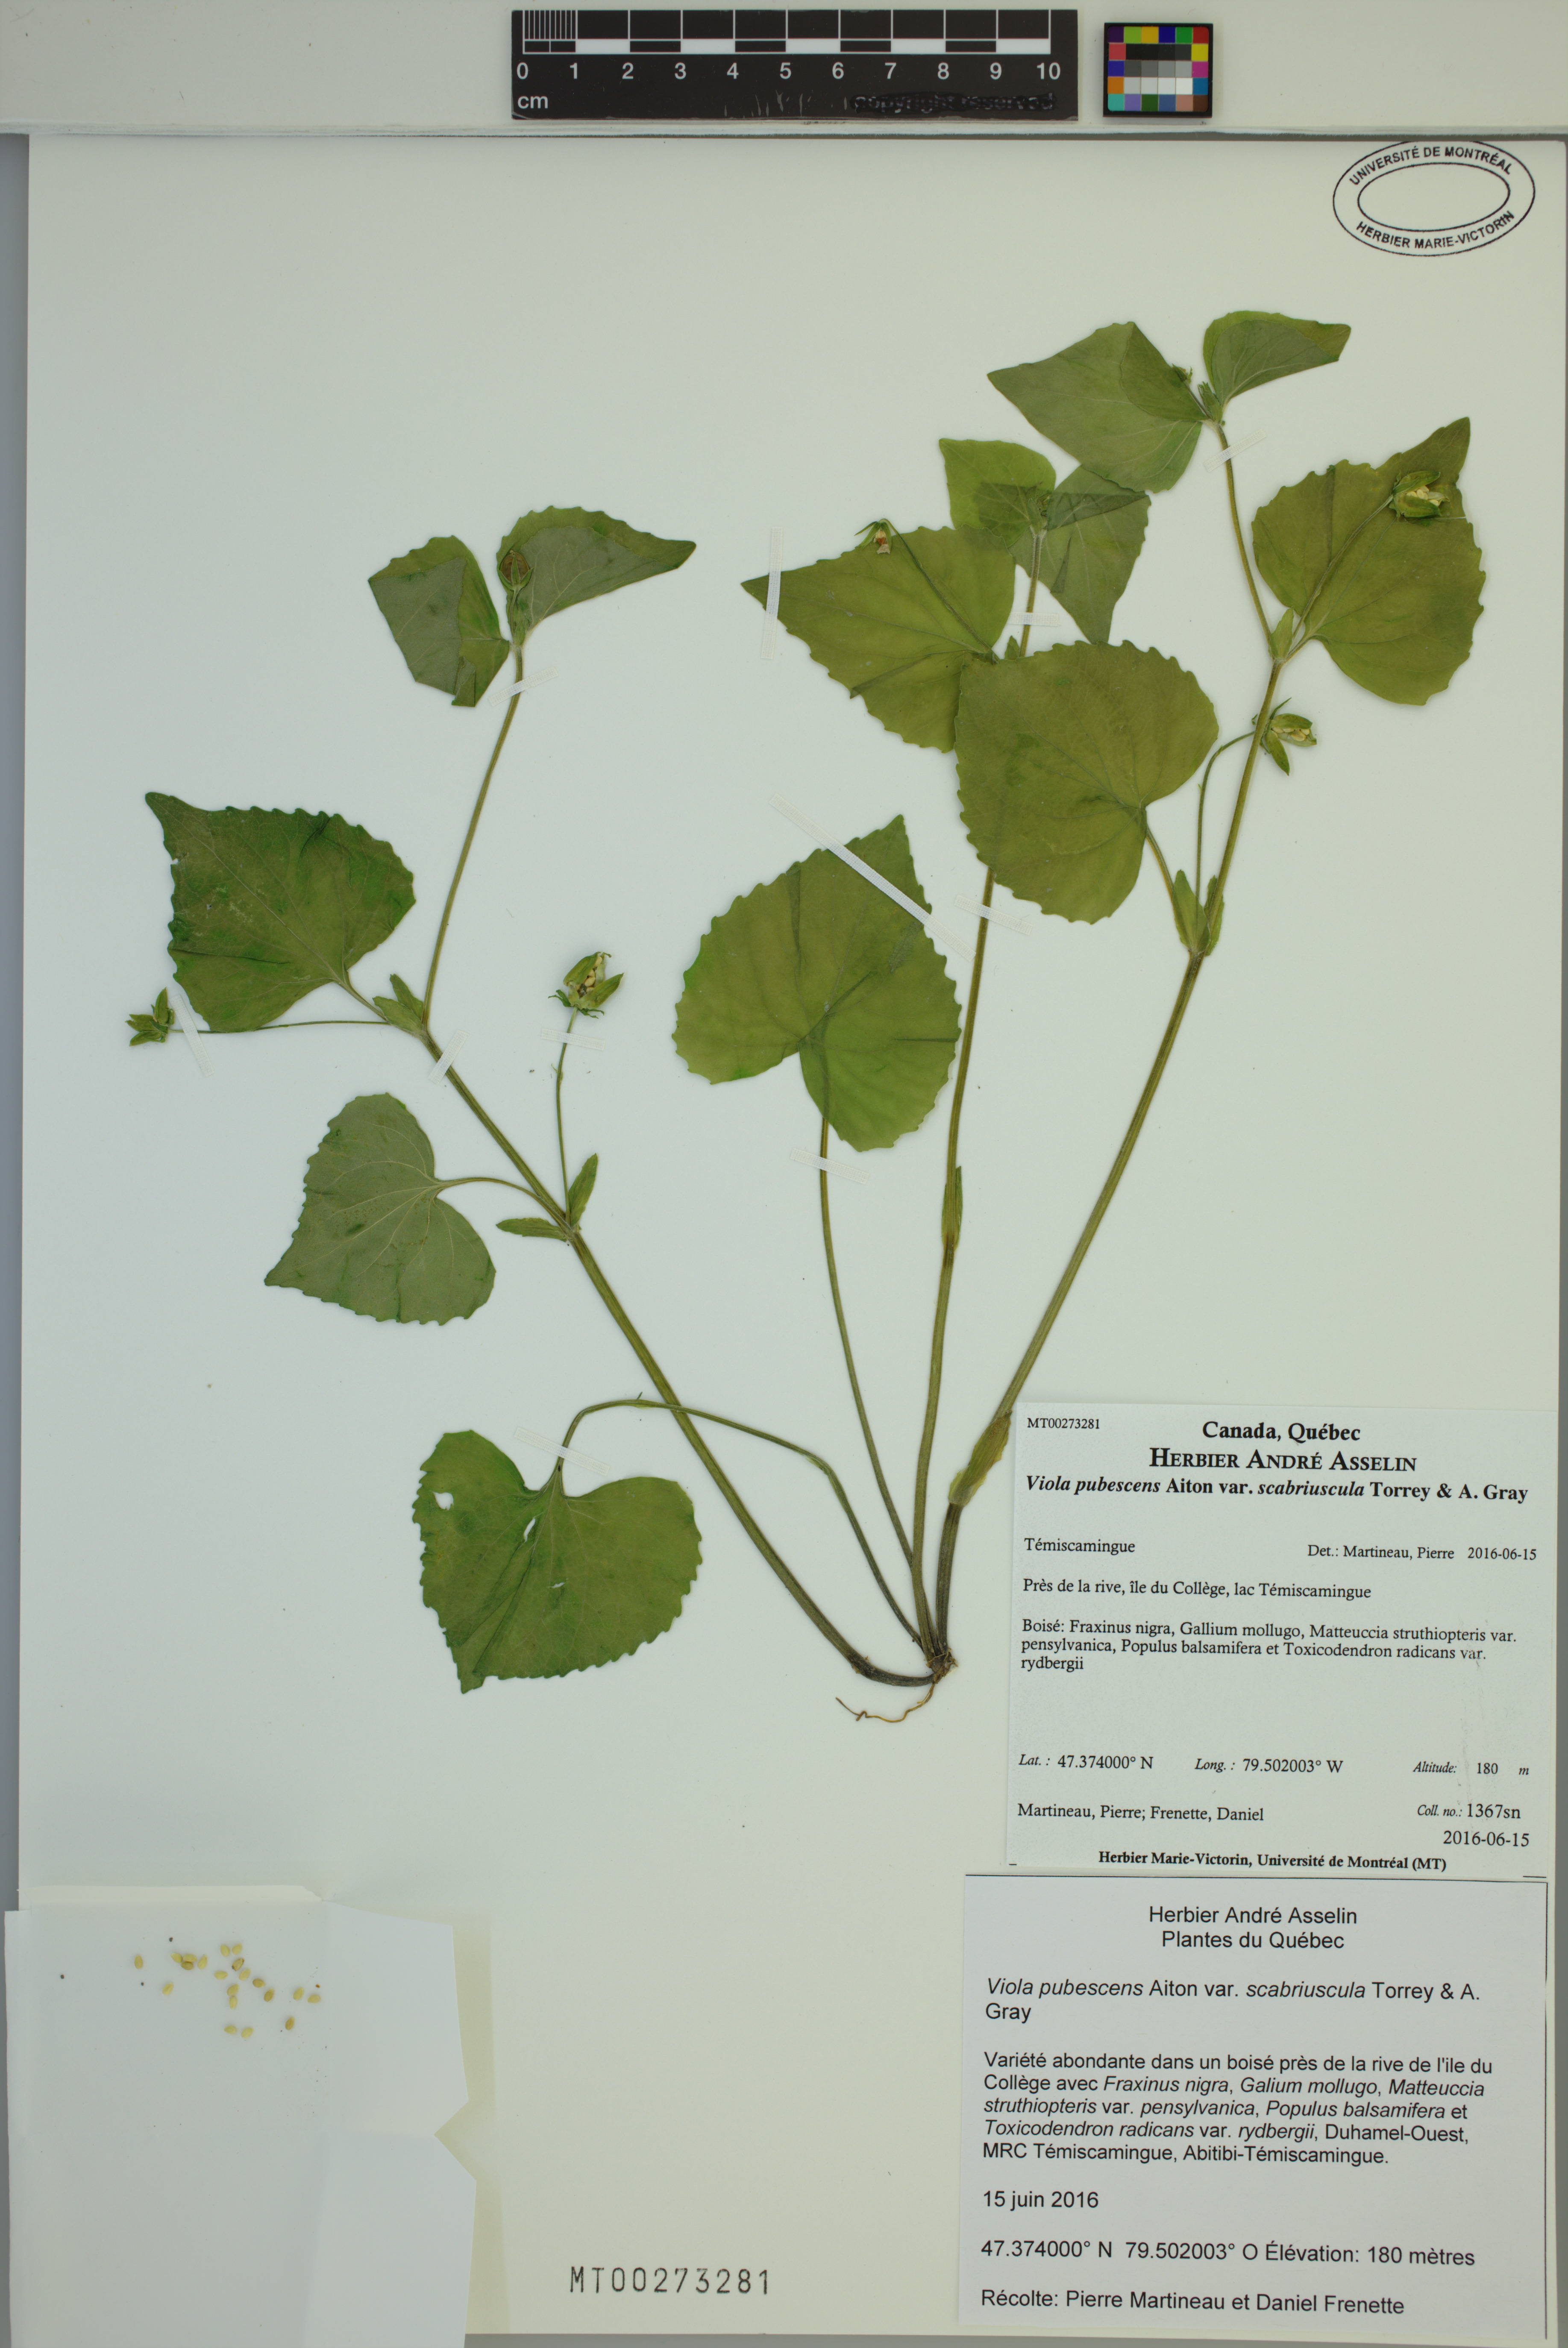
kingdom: Plantae
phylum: Tracheophyta
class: Magnoliopsida
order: Malpighiales
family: Violaceae
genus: Viola
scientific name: Viola eriocarpa
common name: Smooth yellow violet
